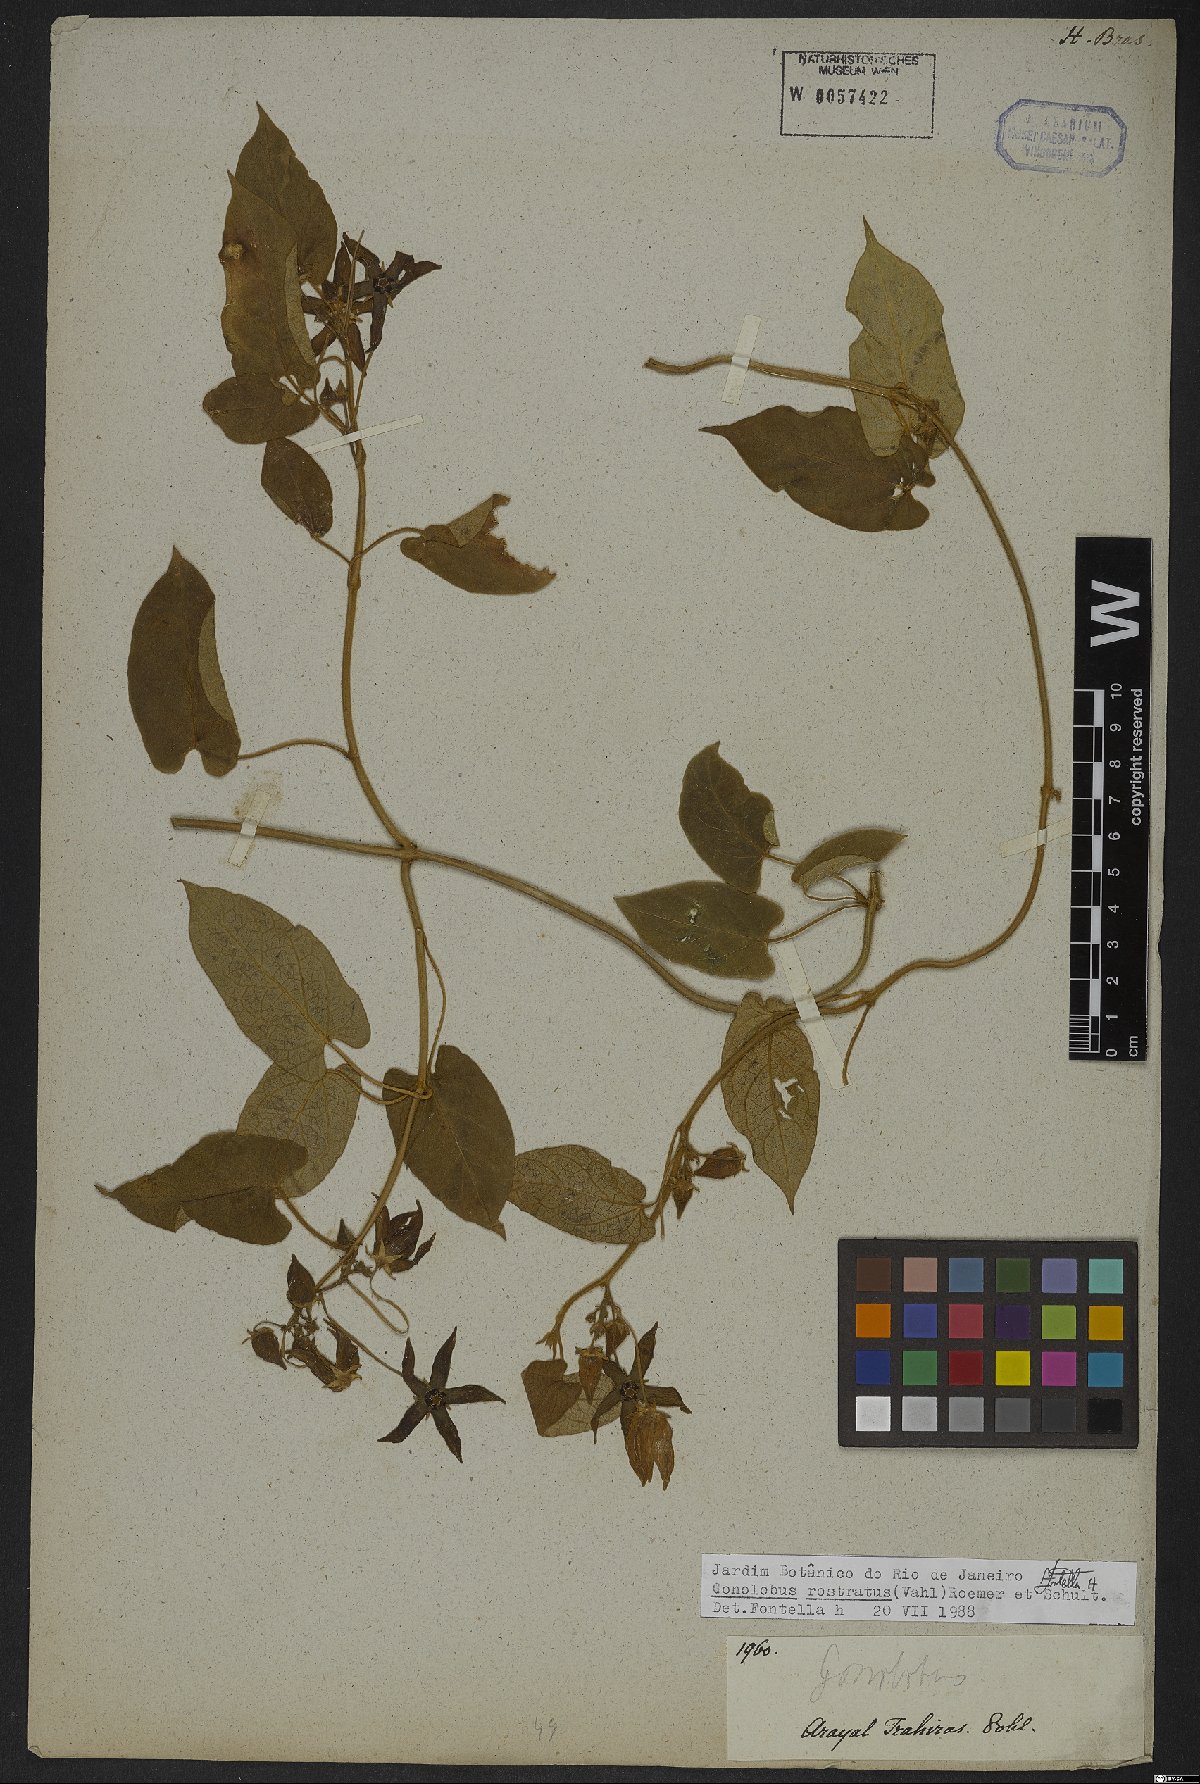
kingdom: Plantae
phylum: Tracheophyta
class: Magnoliopsida
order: Gentianales
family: Apocynaceae
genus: Gonolobus
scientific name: Gonolobus rostratus
